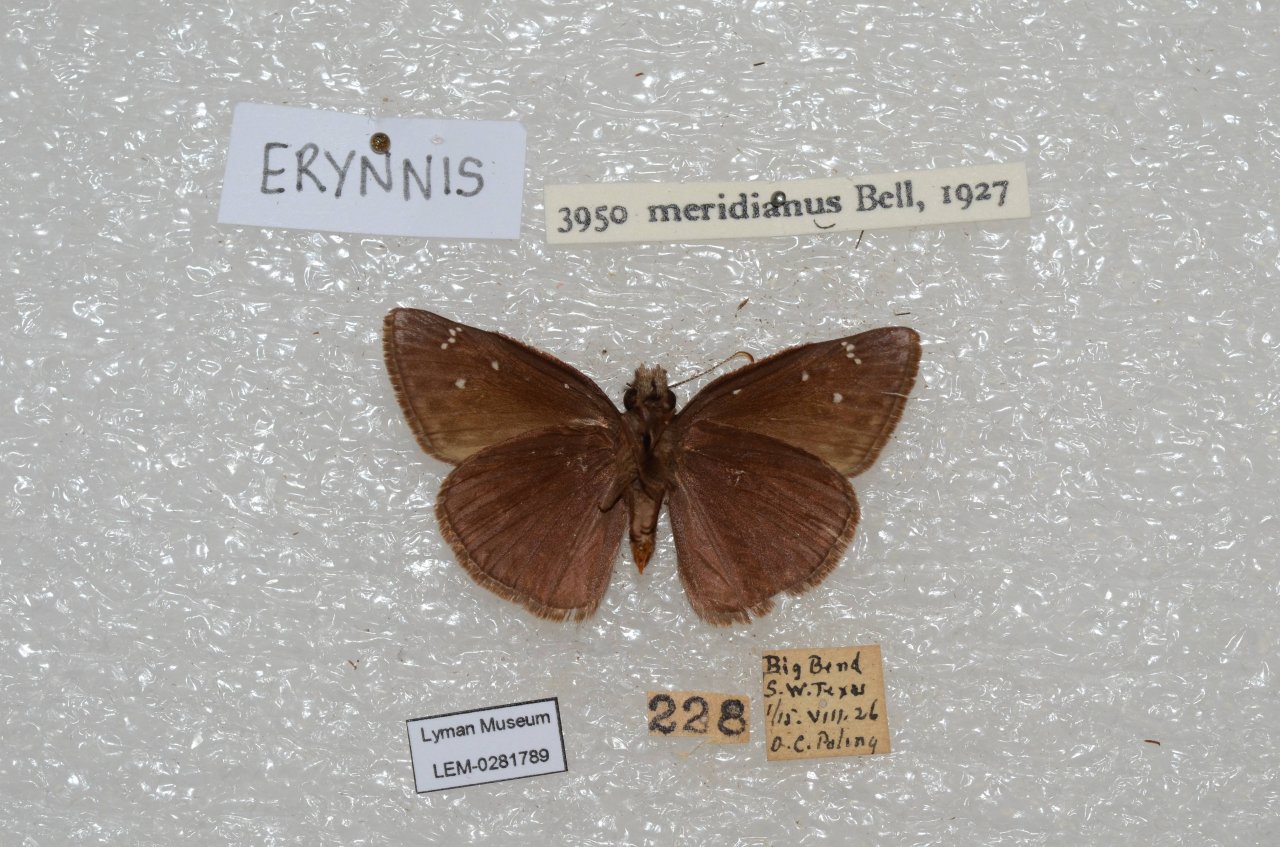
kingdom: Animalia
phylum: Arthropoda
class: Insecta
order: Lepidoptera
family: Hesperiidae
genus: Erynnis
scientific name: Erynnis meridianus
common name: Meridian Duskywing
